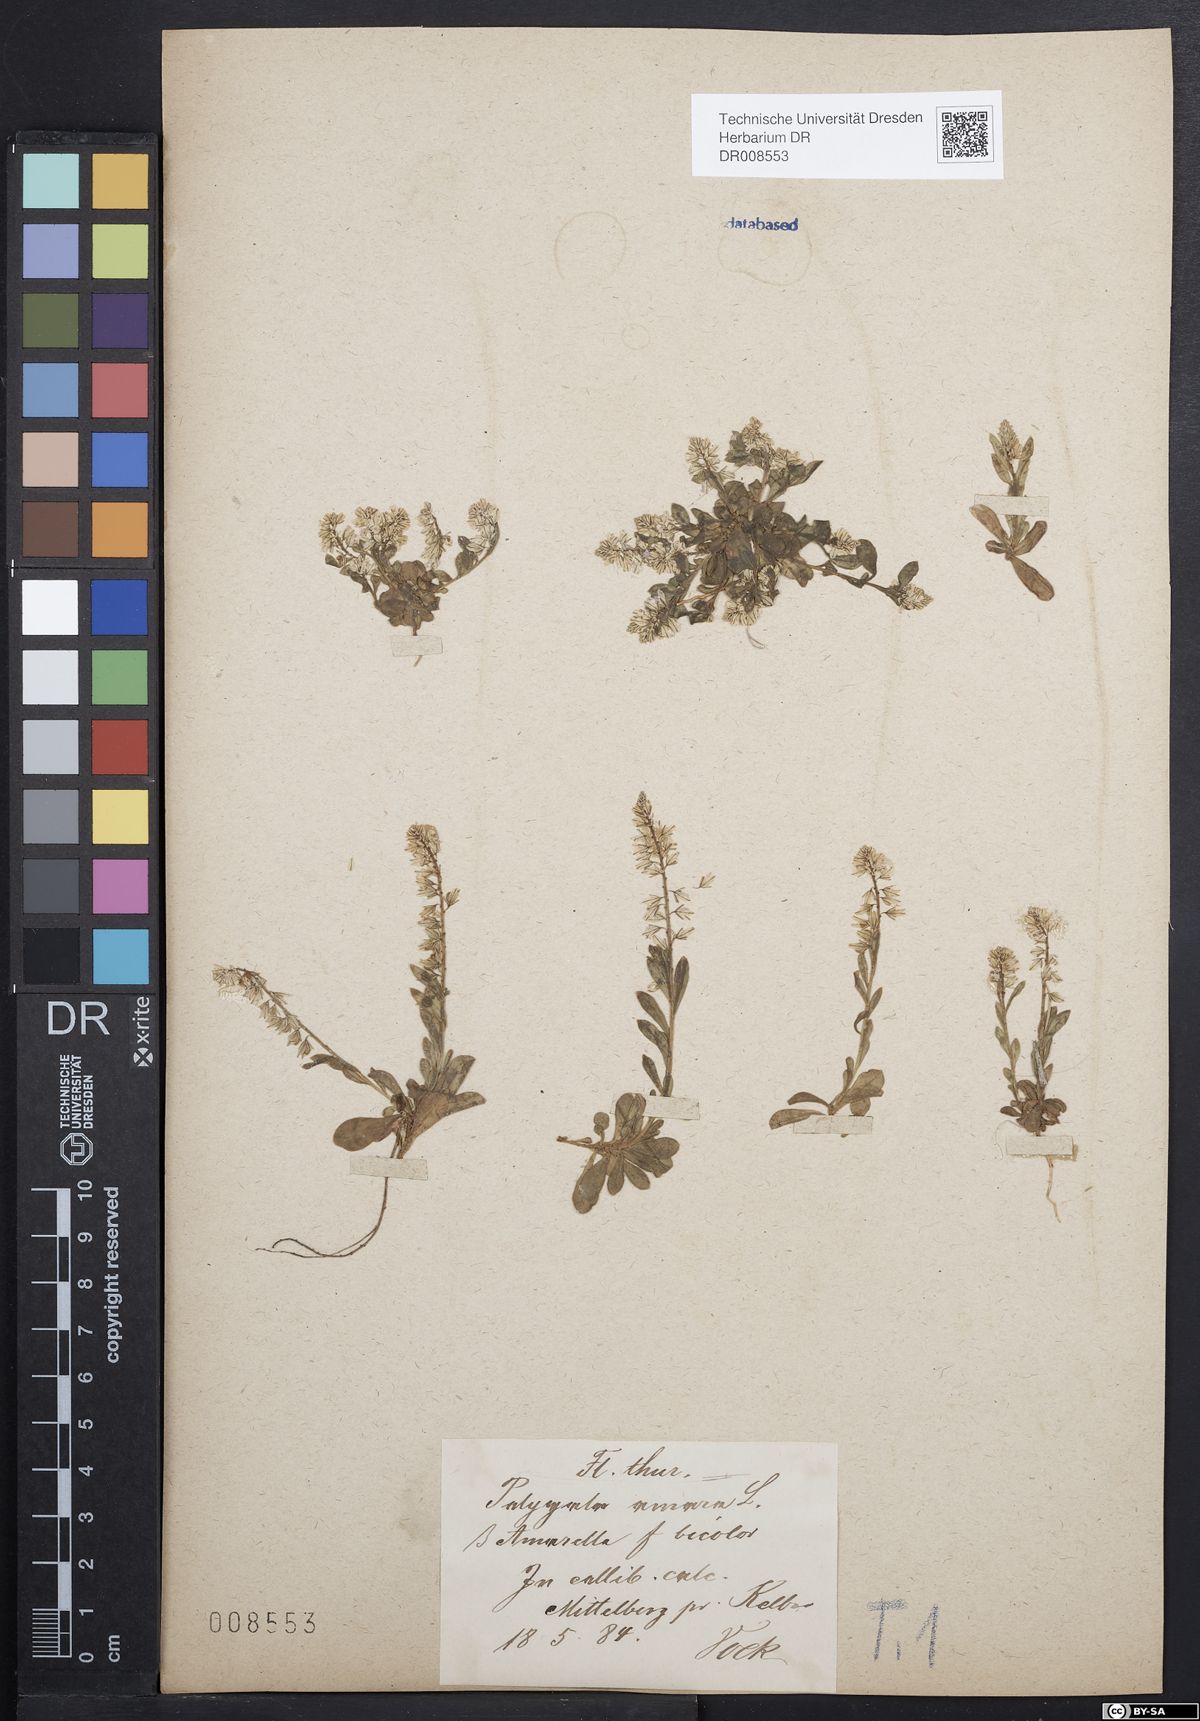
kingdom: Plantae
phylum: Tracheophyta
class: Magnoliopsida
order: Fabales
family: Polygalaceae
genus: Polygala
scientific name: Polygala amarella
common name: Dwarf milkwort
